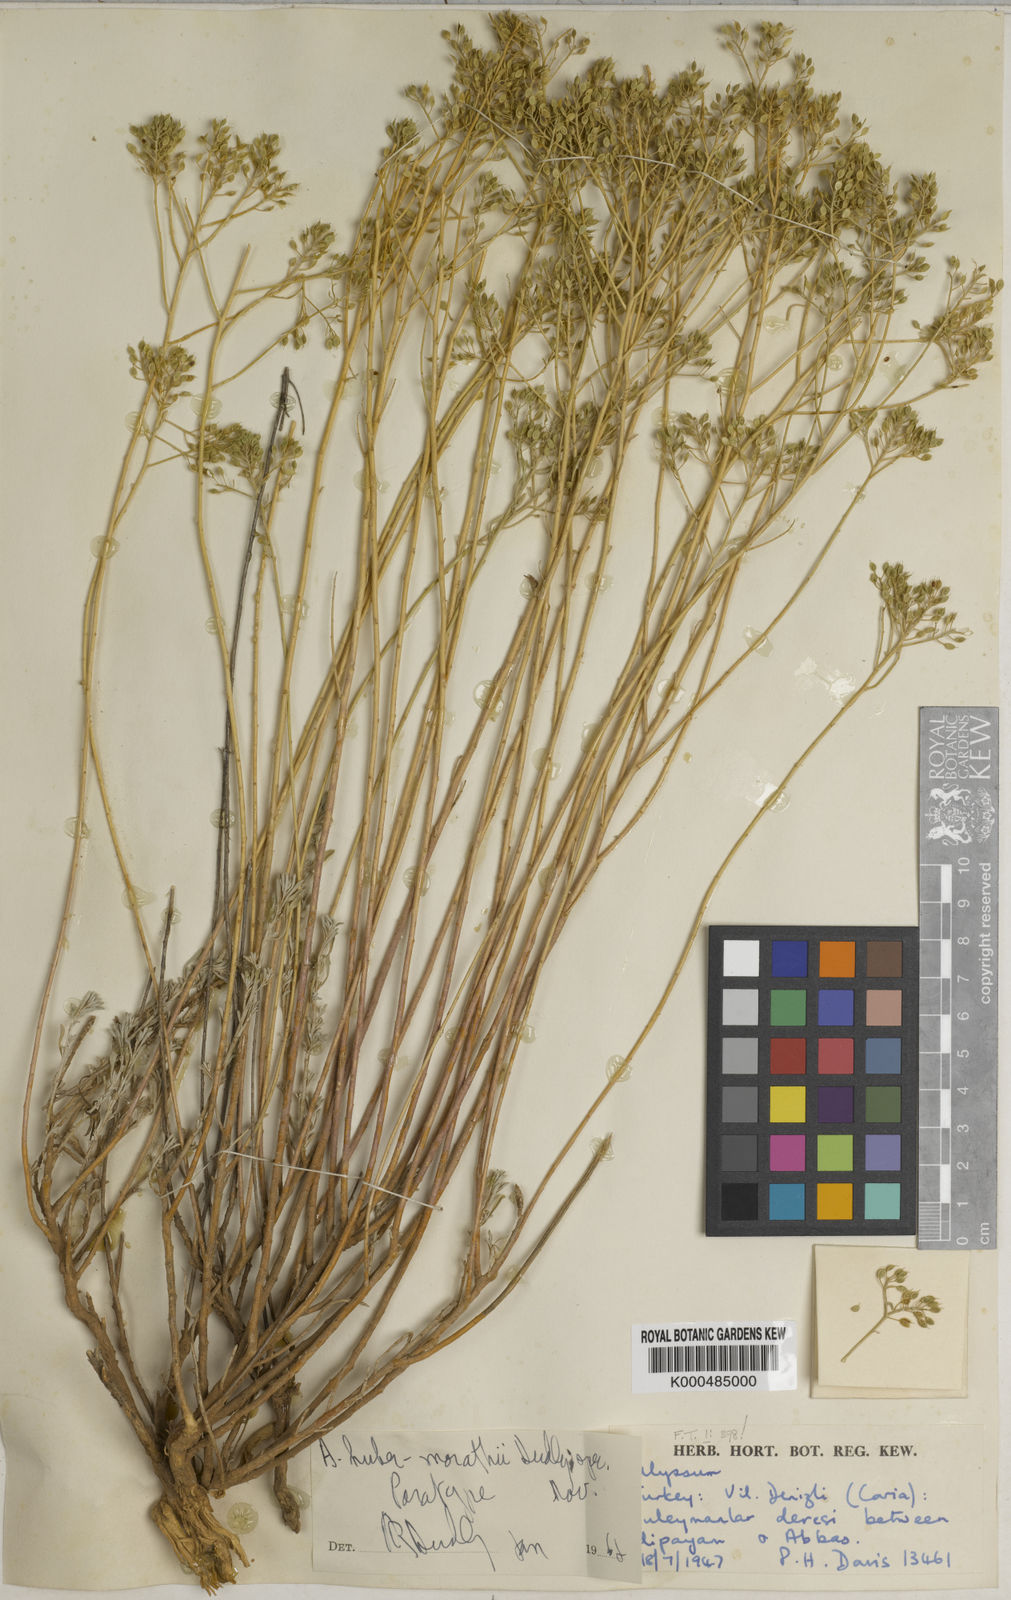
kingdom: Plantae
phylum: Tracheophyta
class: Magnoliopsida
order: Brassicales
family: Brassicaceae
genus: Odontarrhena
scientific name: Odontarrhena huber-morathii
